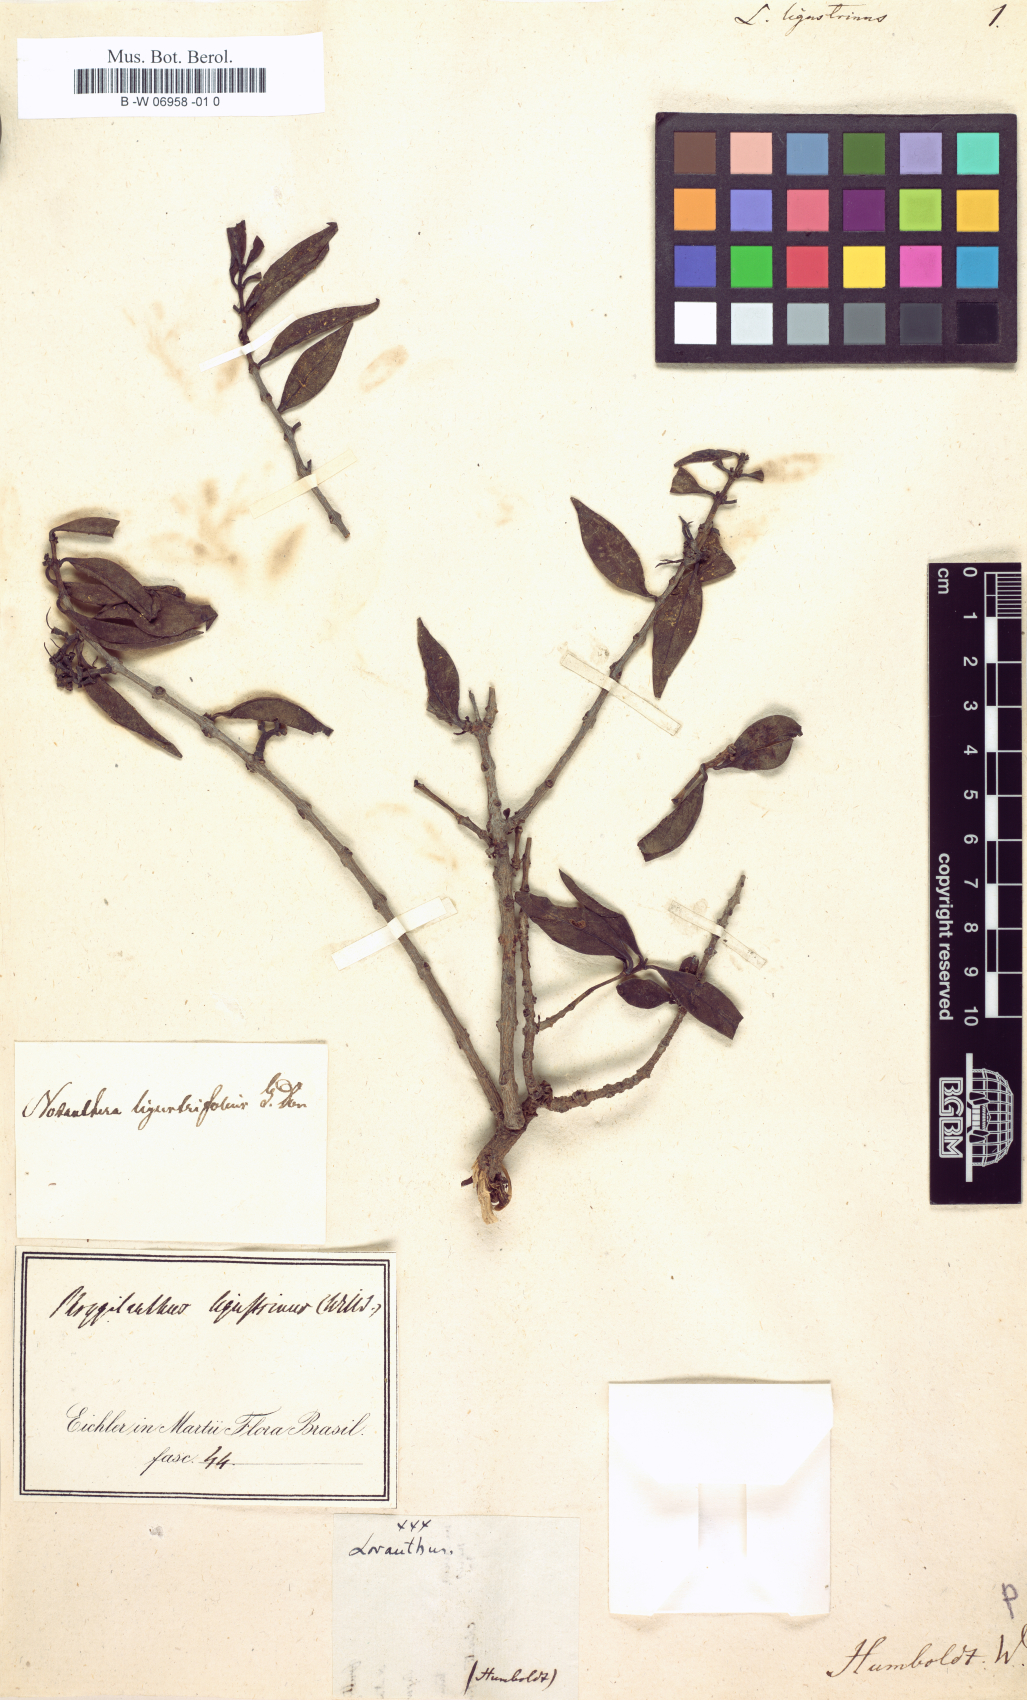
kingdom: Plantae
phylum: Tracheophyta
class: Magnoliopsida
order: Santalales
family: Loranthaceae
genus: Tripodanthus
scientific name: Tripodanthus acutifolius
